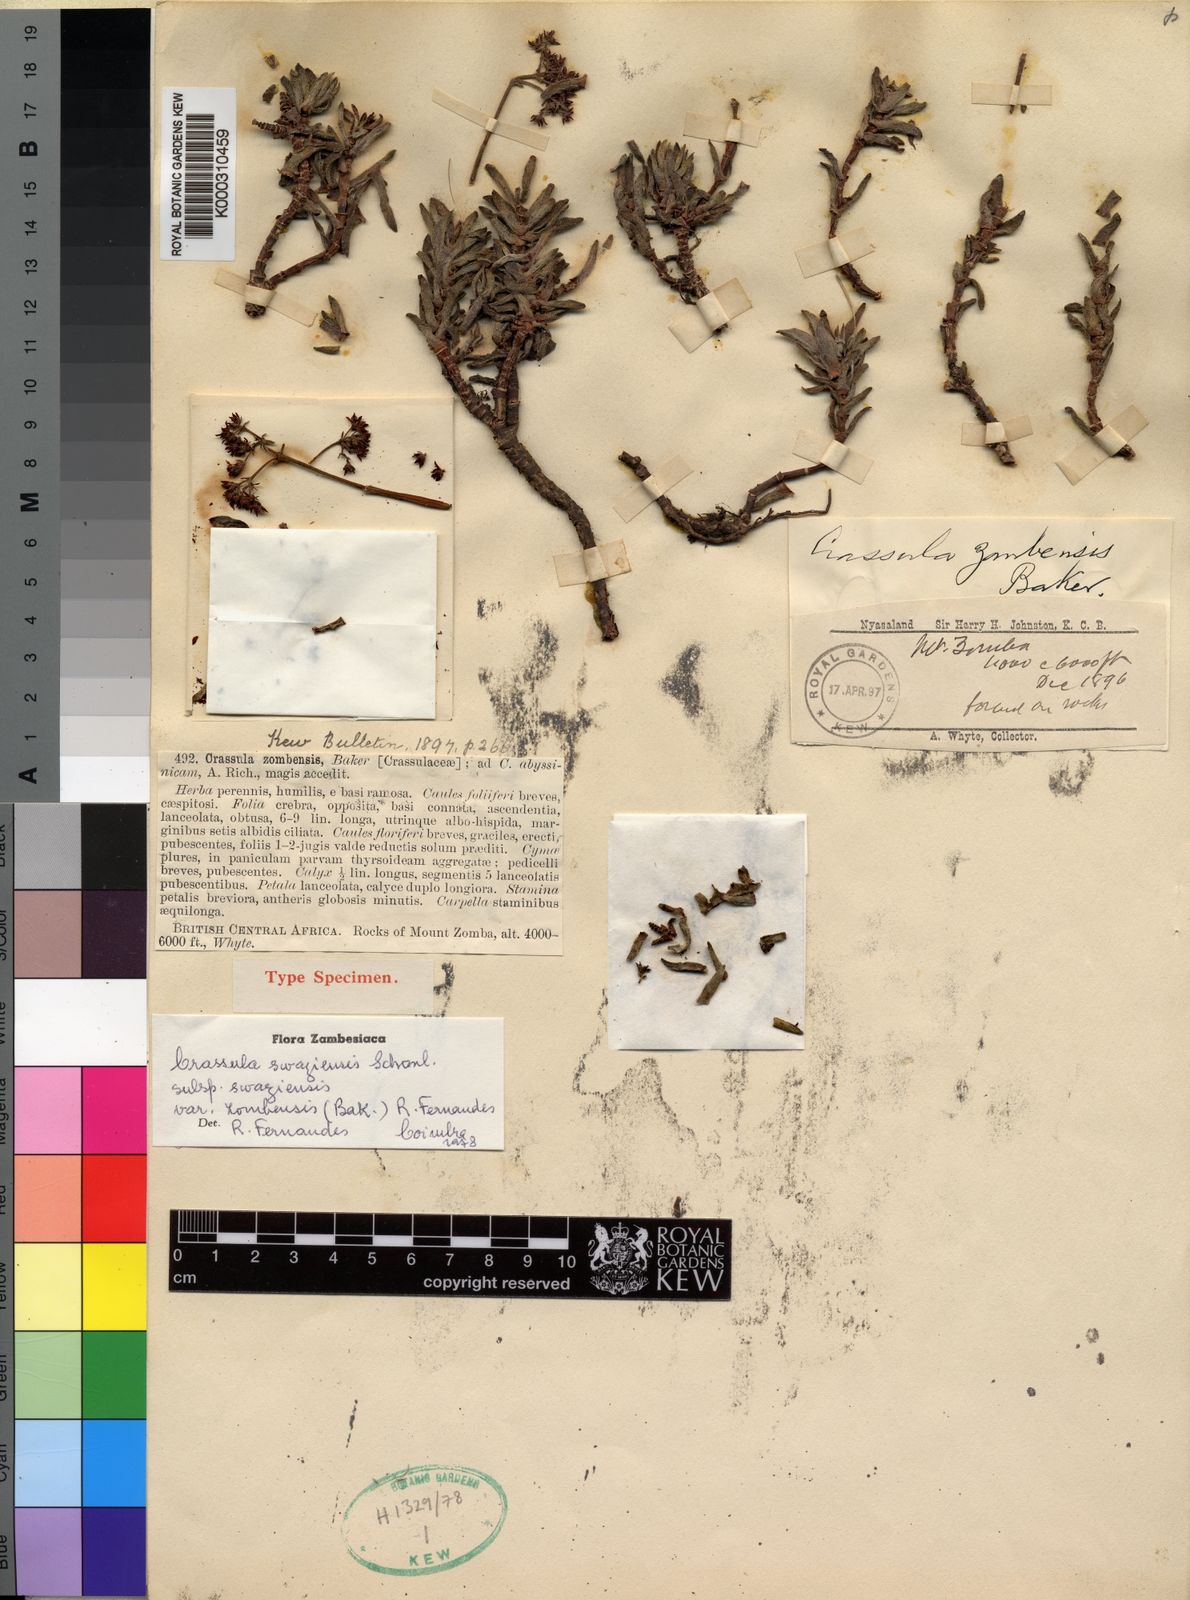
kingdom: Plantae
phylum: Tracheophyta
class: Magnoliopsida
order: Saxifragales
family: Crassulaceae
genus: Crassula
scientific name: Crassula
